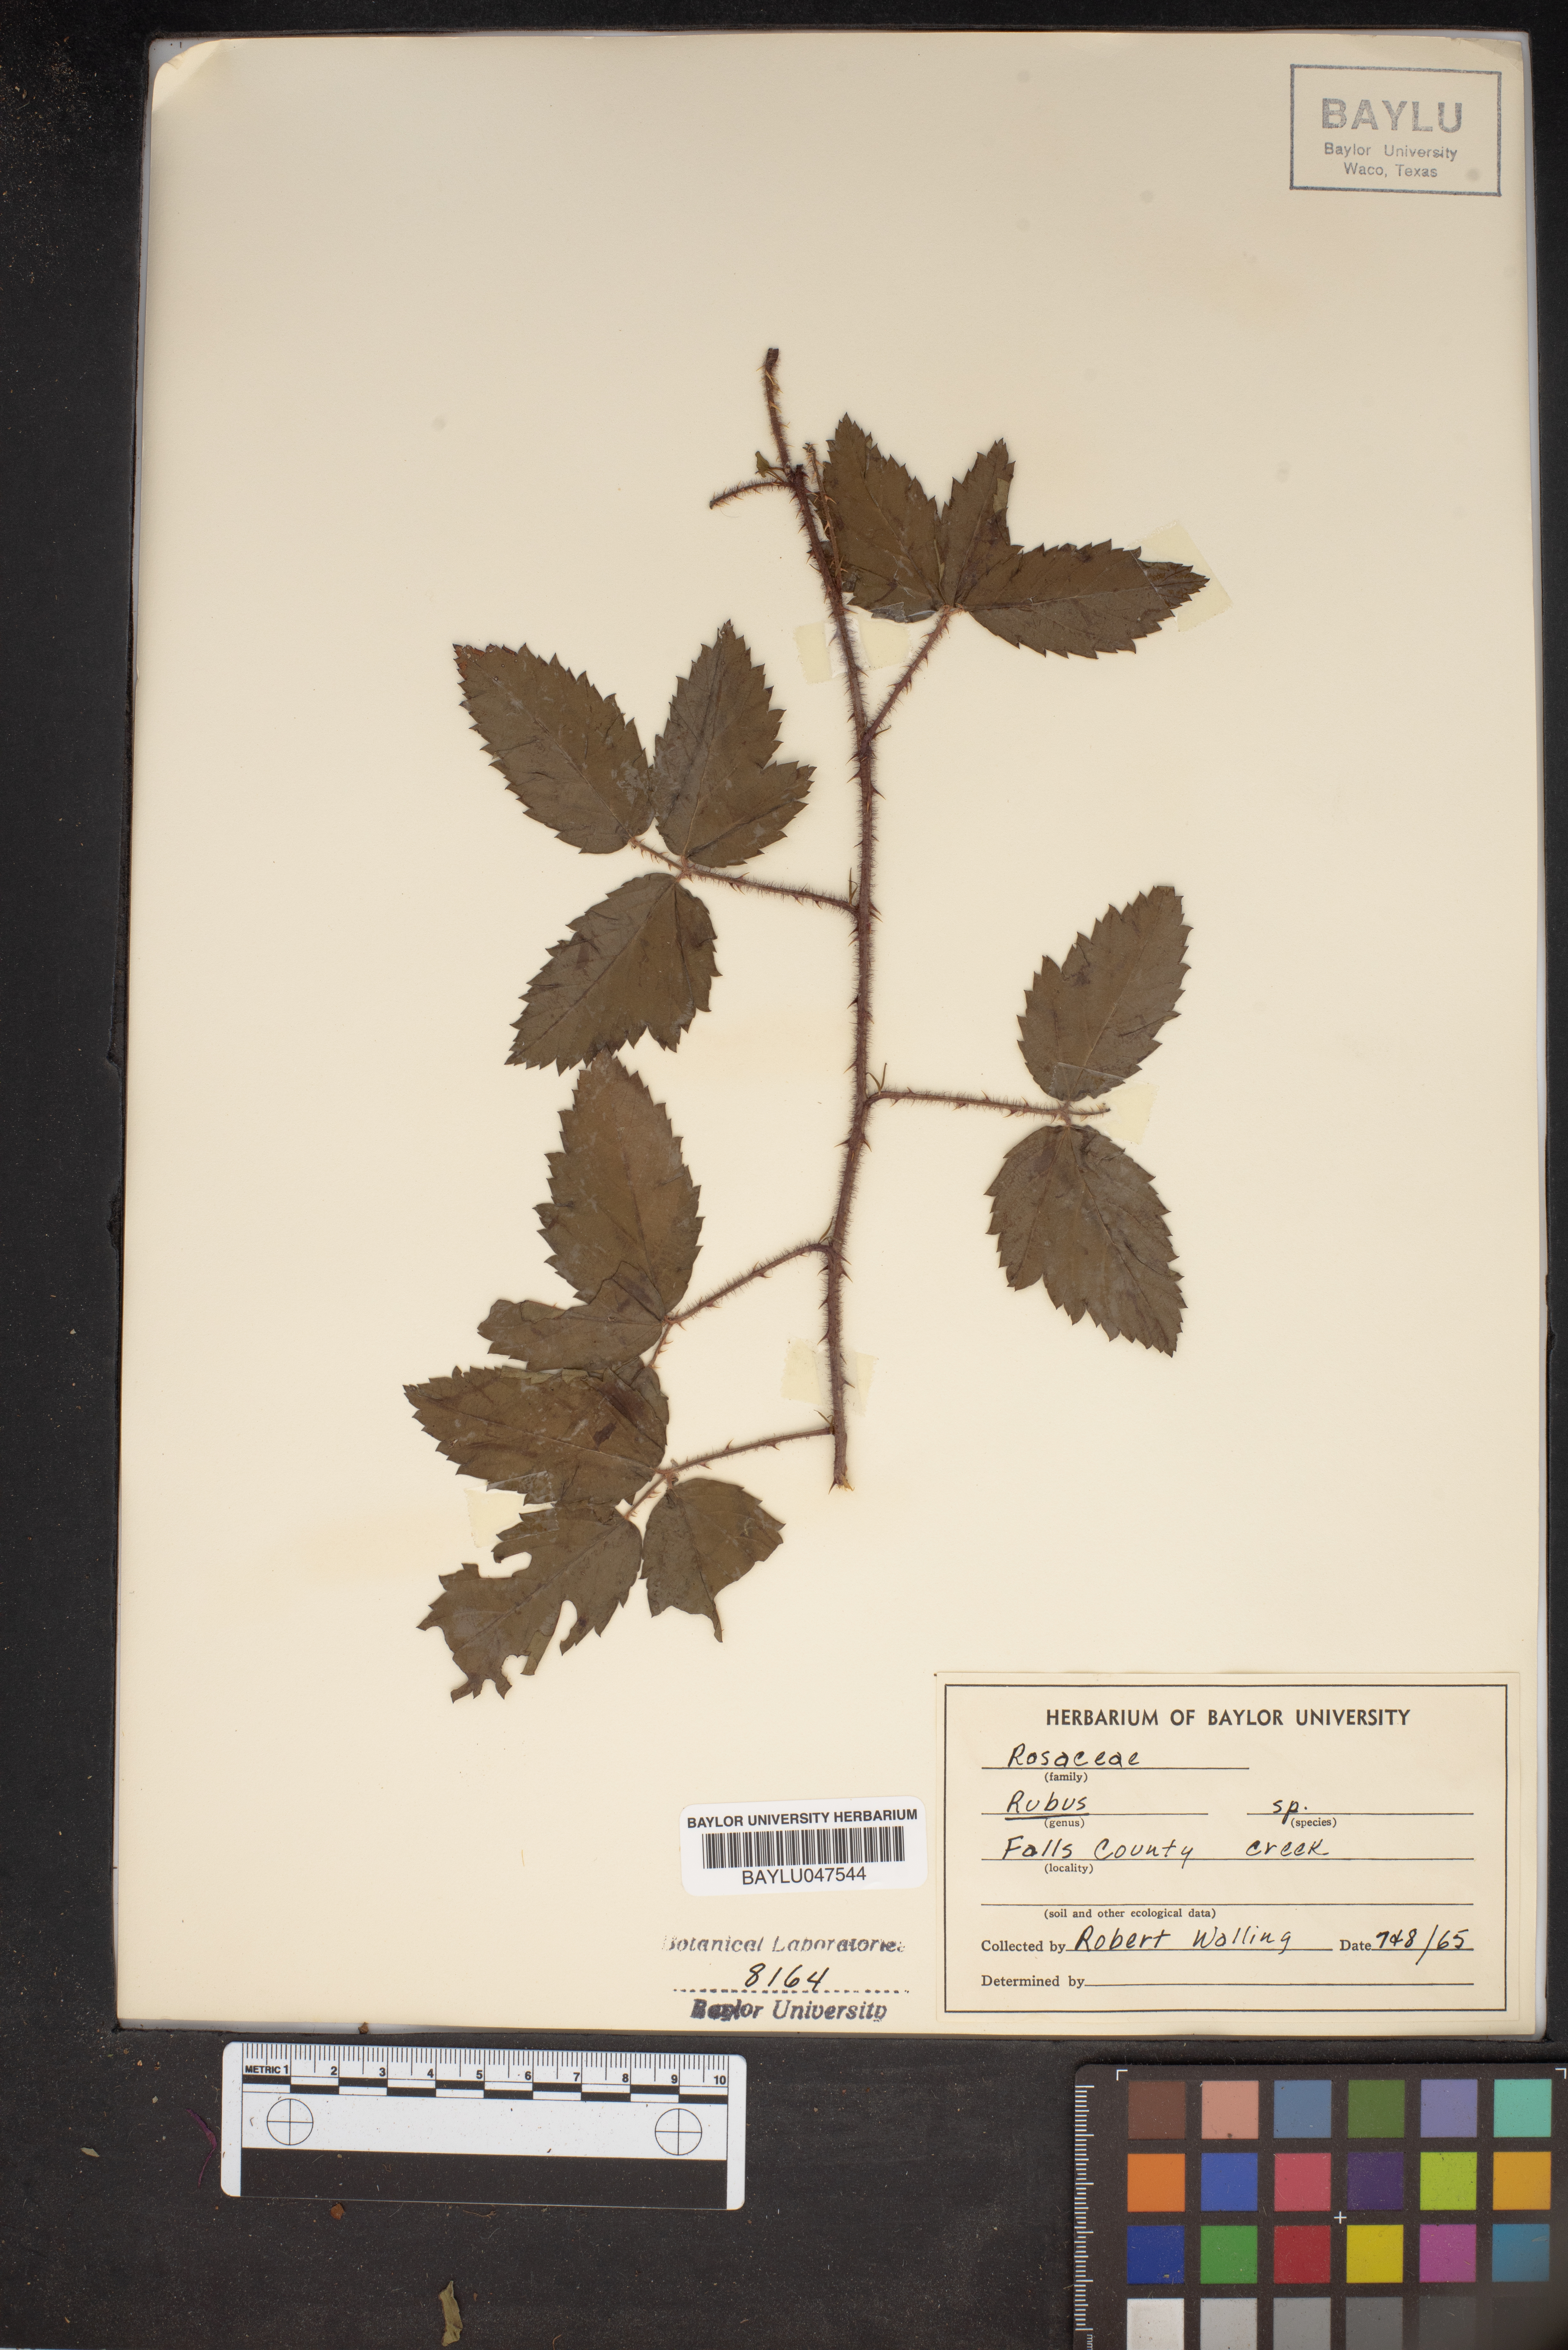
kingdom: Plantae
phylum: Tracheophyta
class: Magnoliopsida
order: Rosales
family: Rosaceae
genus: Rubus
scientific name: Rubus
